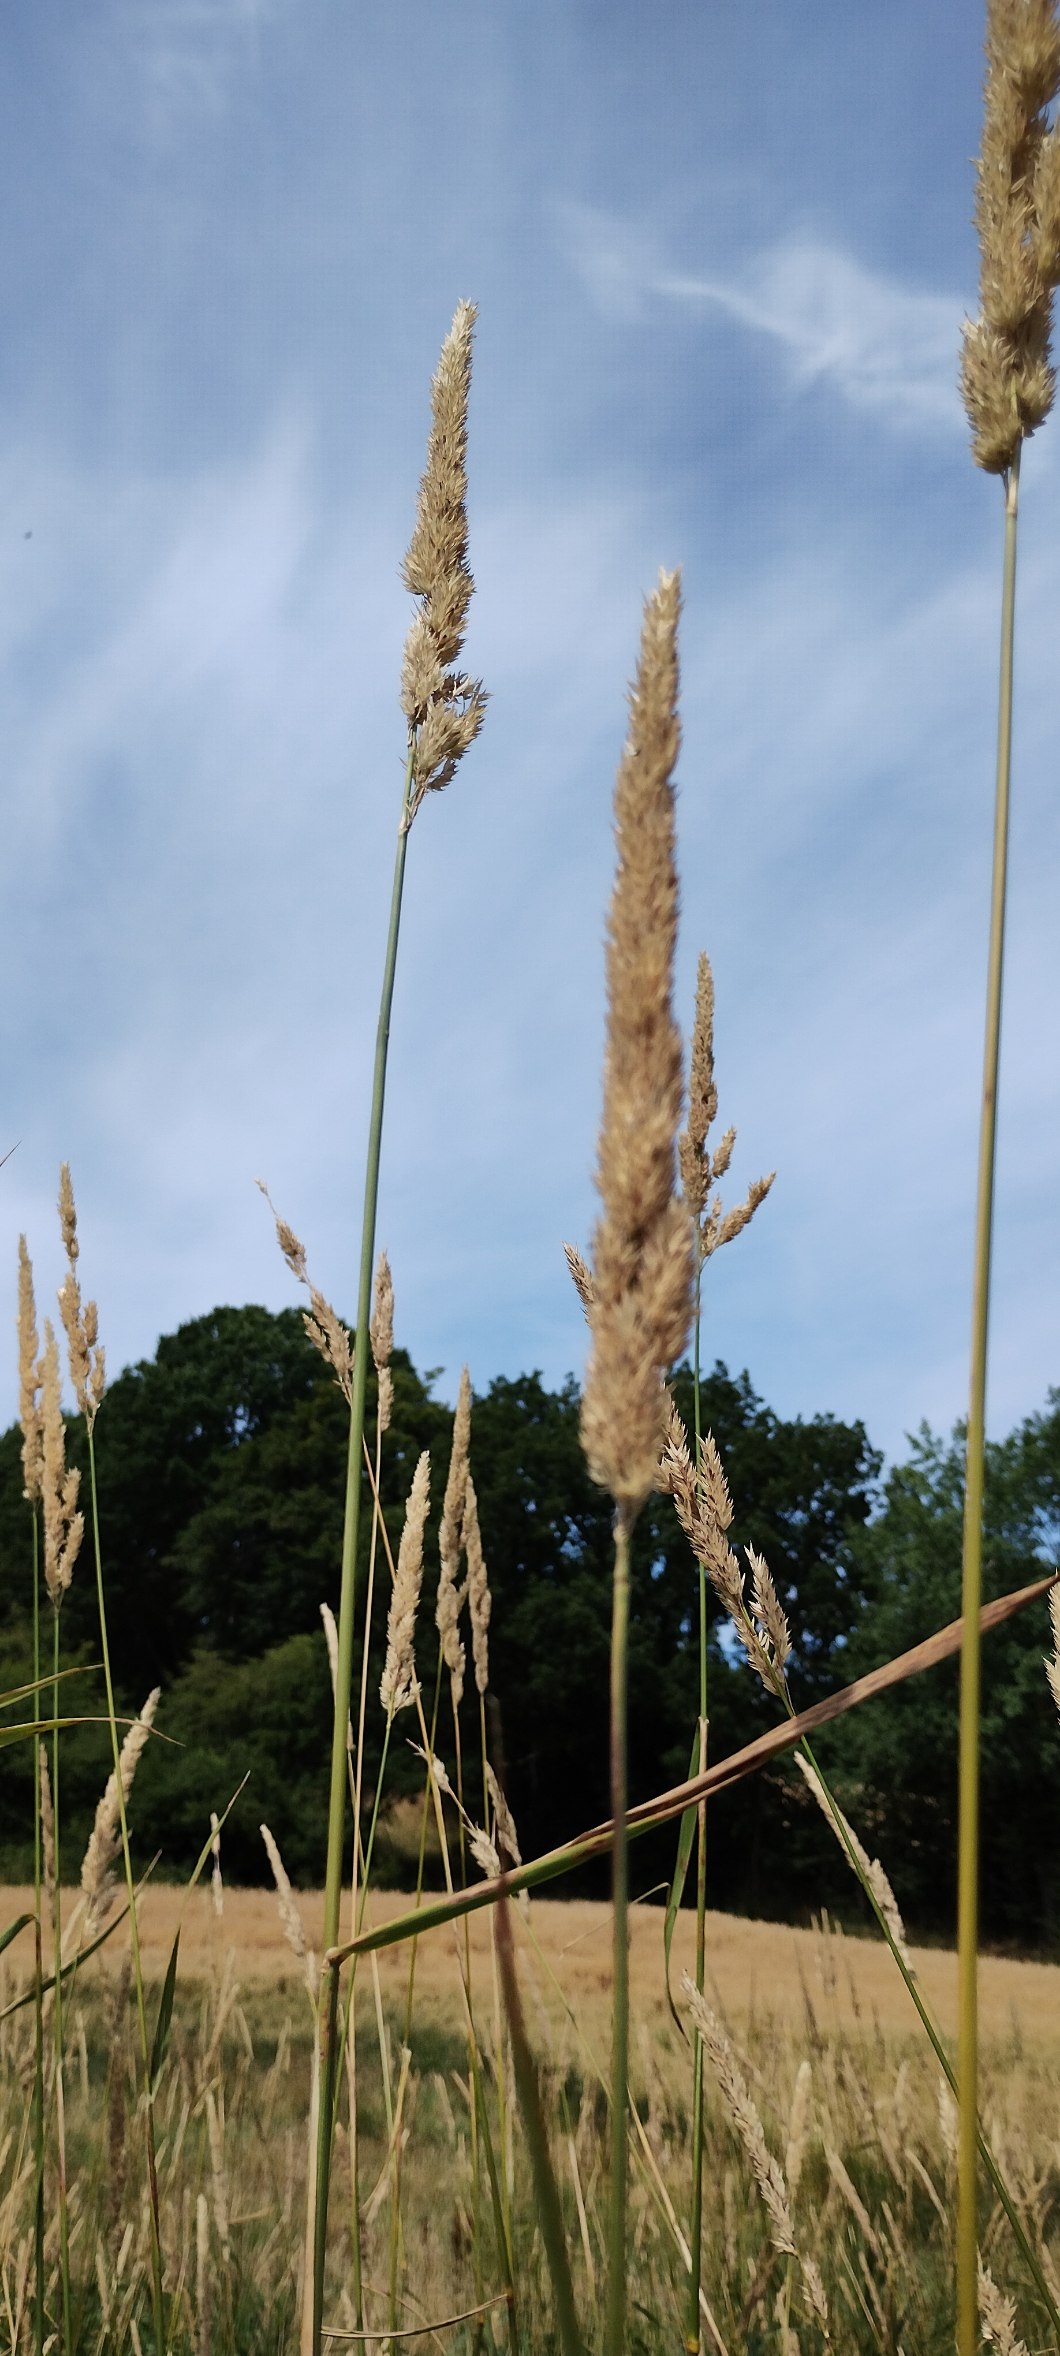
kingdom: Plantae
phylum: Tracheophyta
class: Liliopsida
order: Poales
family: Poaceae
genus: Phalaris
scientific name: Phalaris arundinacea
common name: Rørgræs
